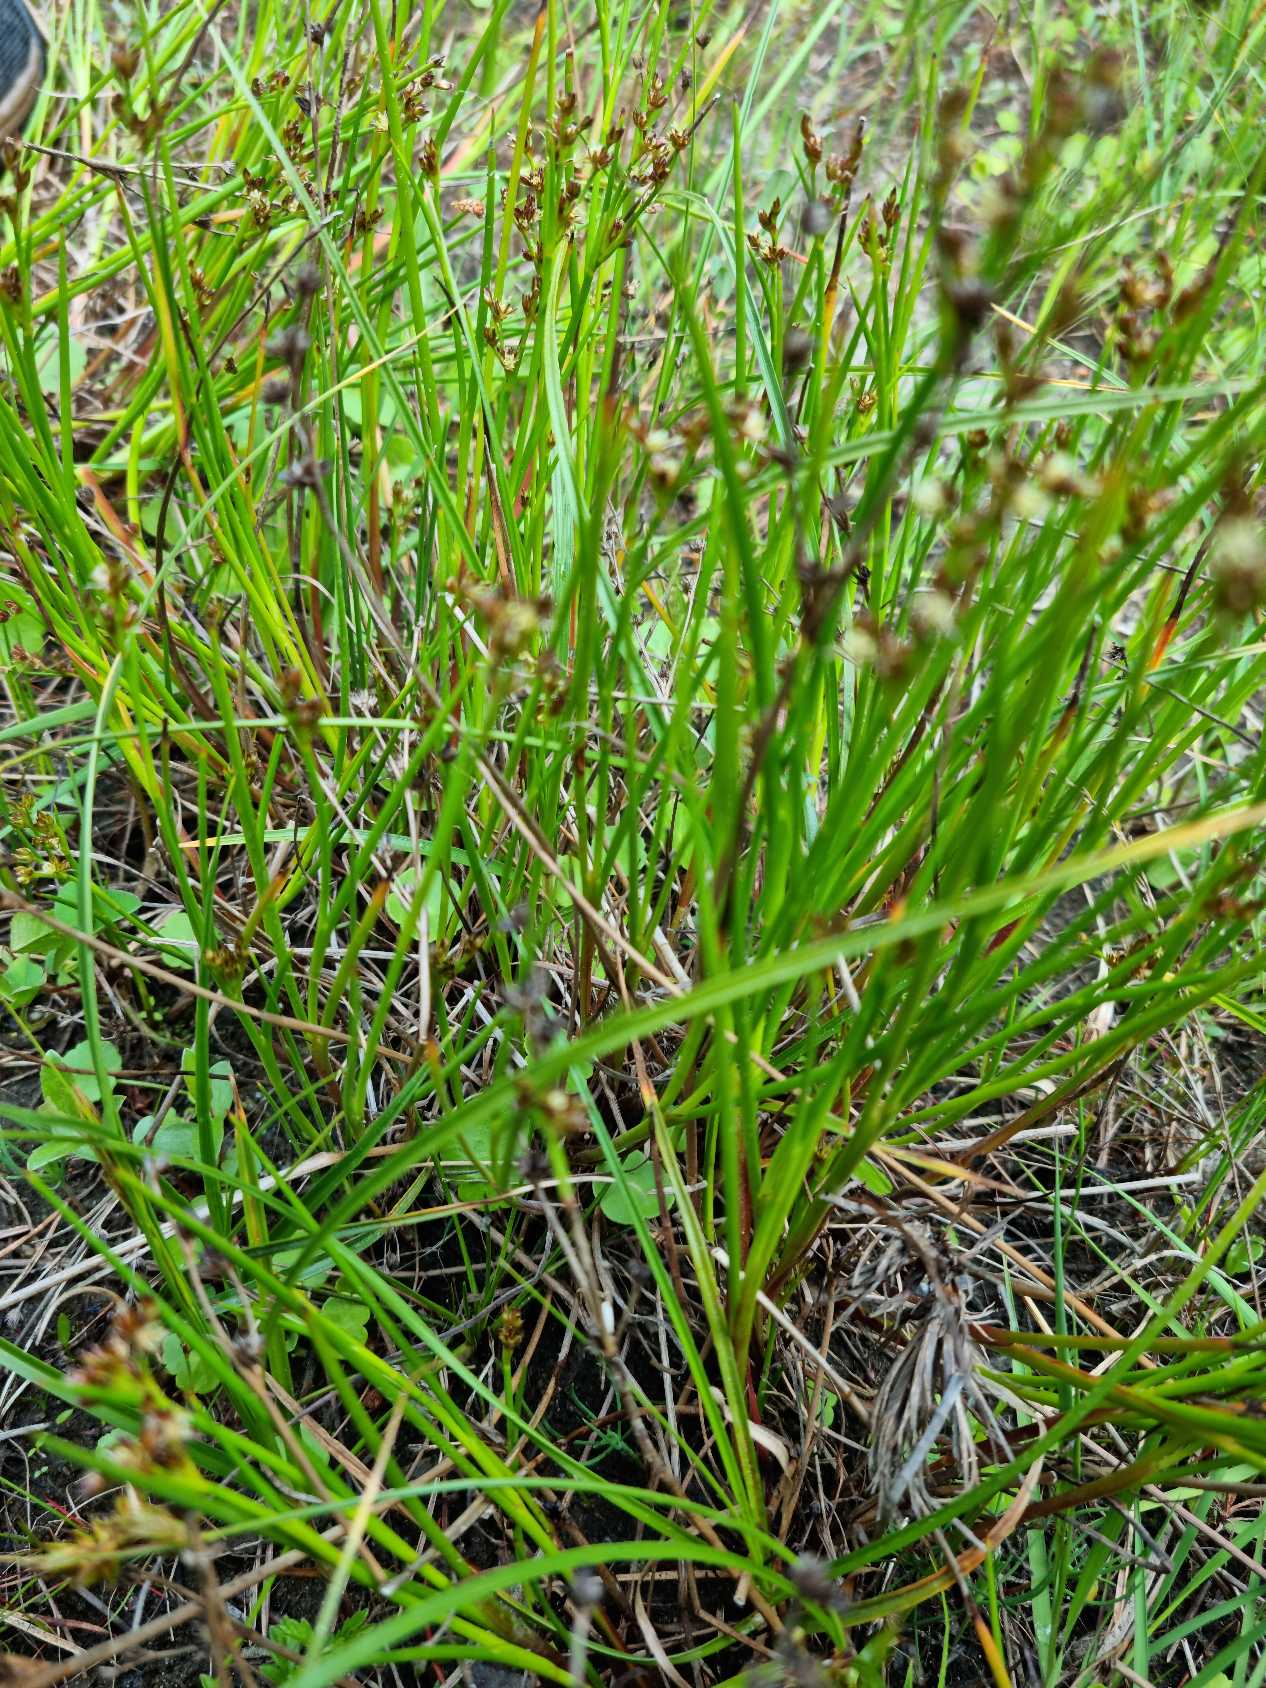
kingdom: Plantae
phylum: Tracheophyta
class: Liliopsida
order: Poales
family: Juncaceae
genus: Juncus
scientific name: Juncus articulatus
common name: Glanskapslet siv
